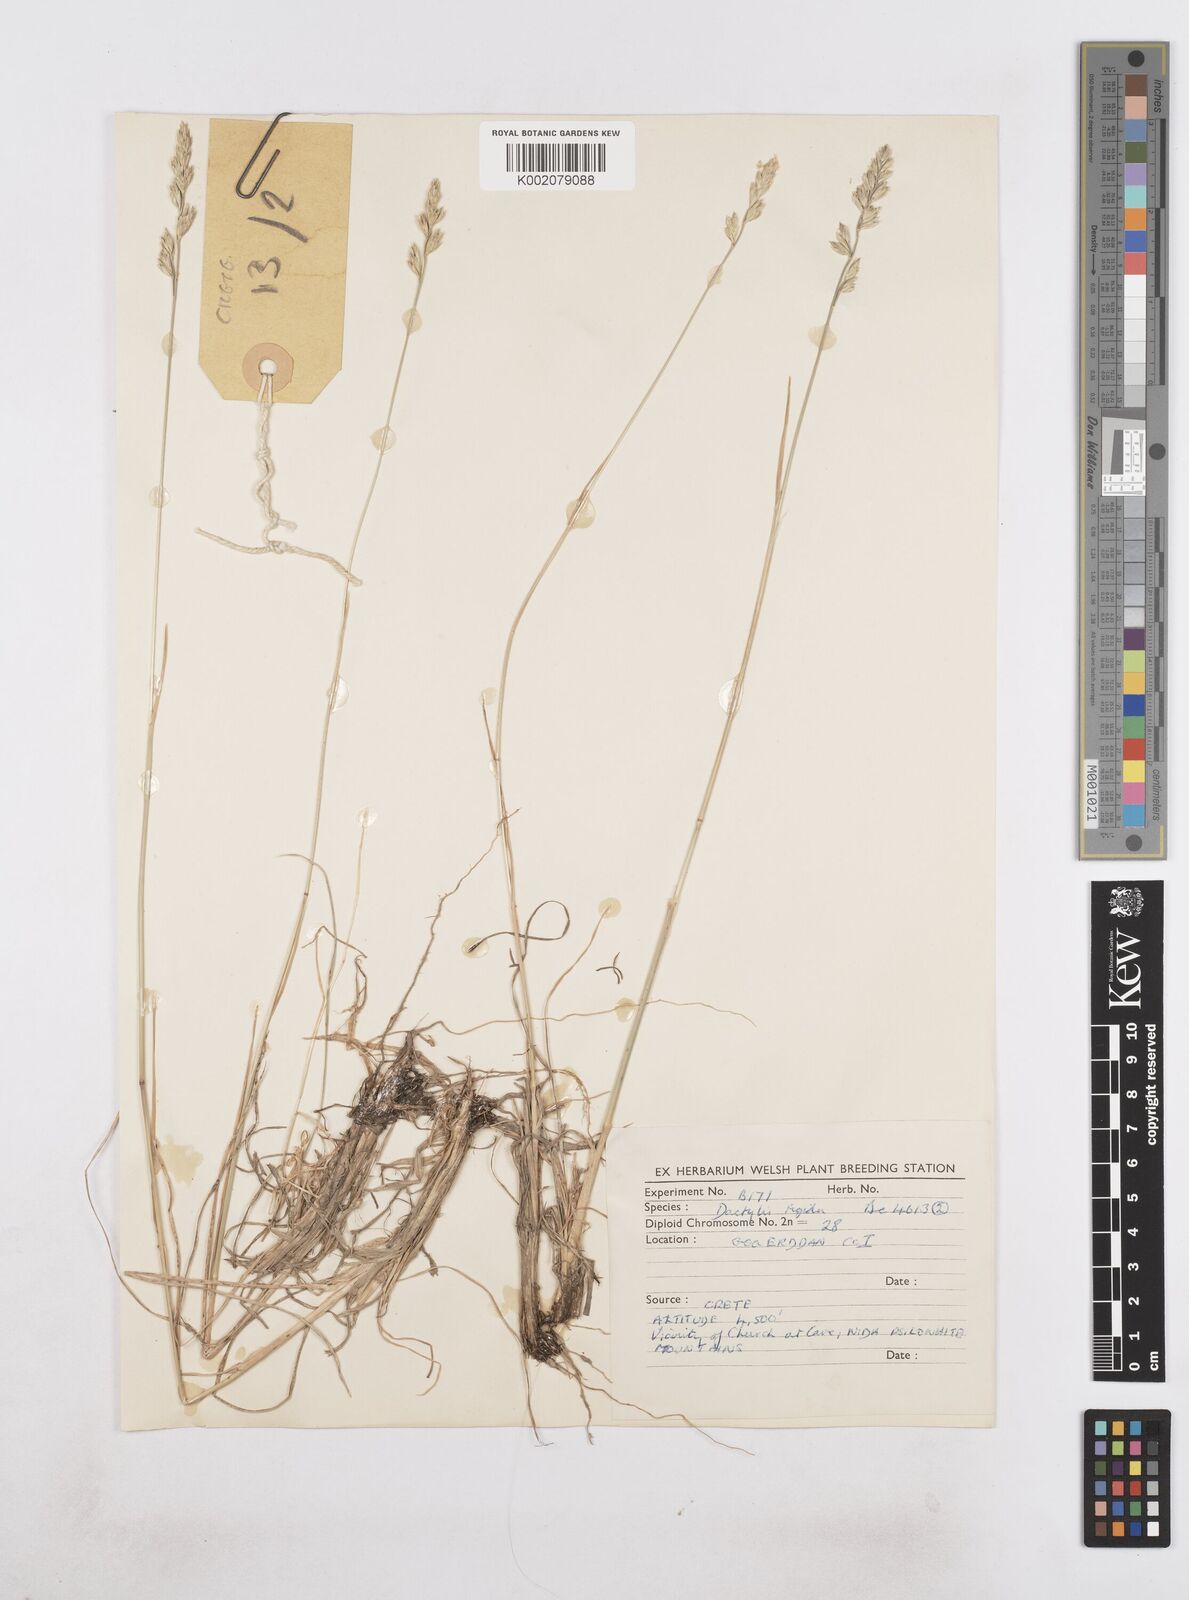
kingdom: Plantae
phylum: Tracheophyta
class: Liliopsida
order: Poales
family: Poaceae
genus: Dactylis
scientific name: Dactylis glomerata
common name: Orchardgrass
